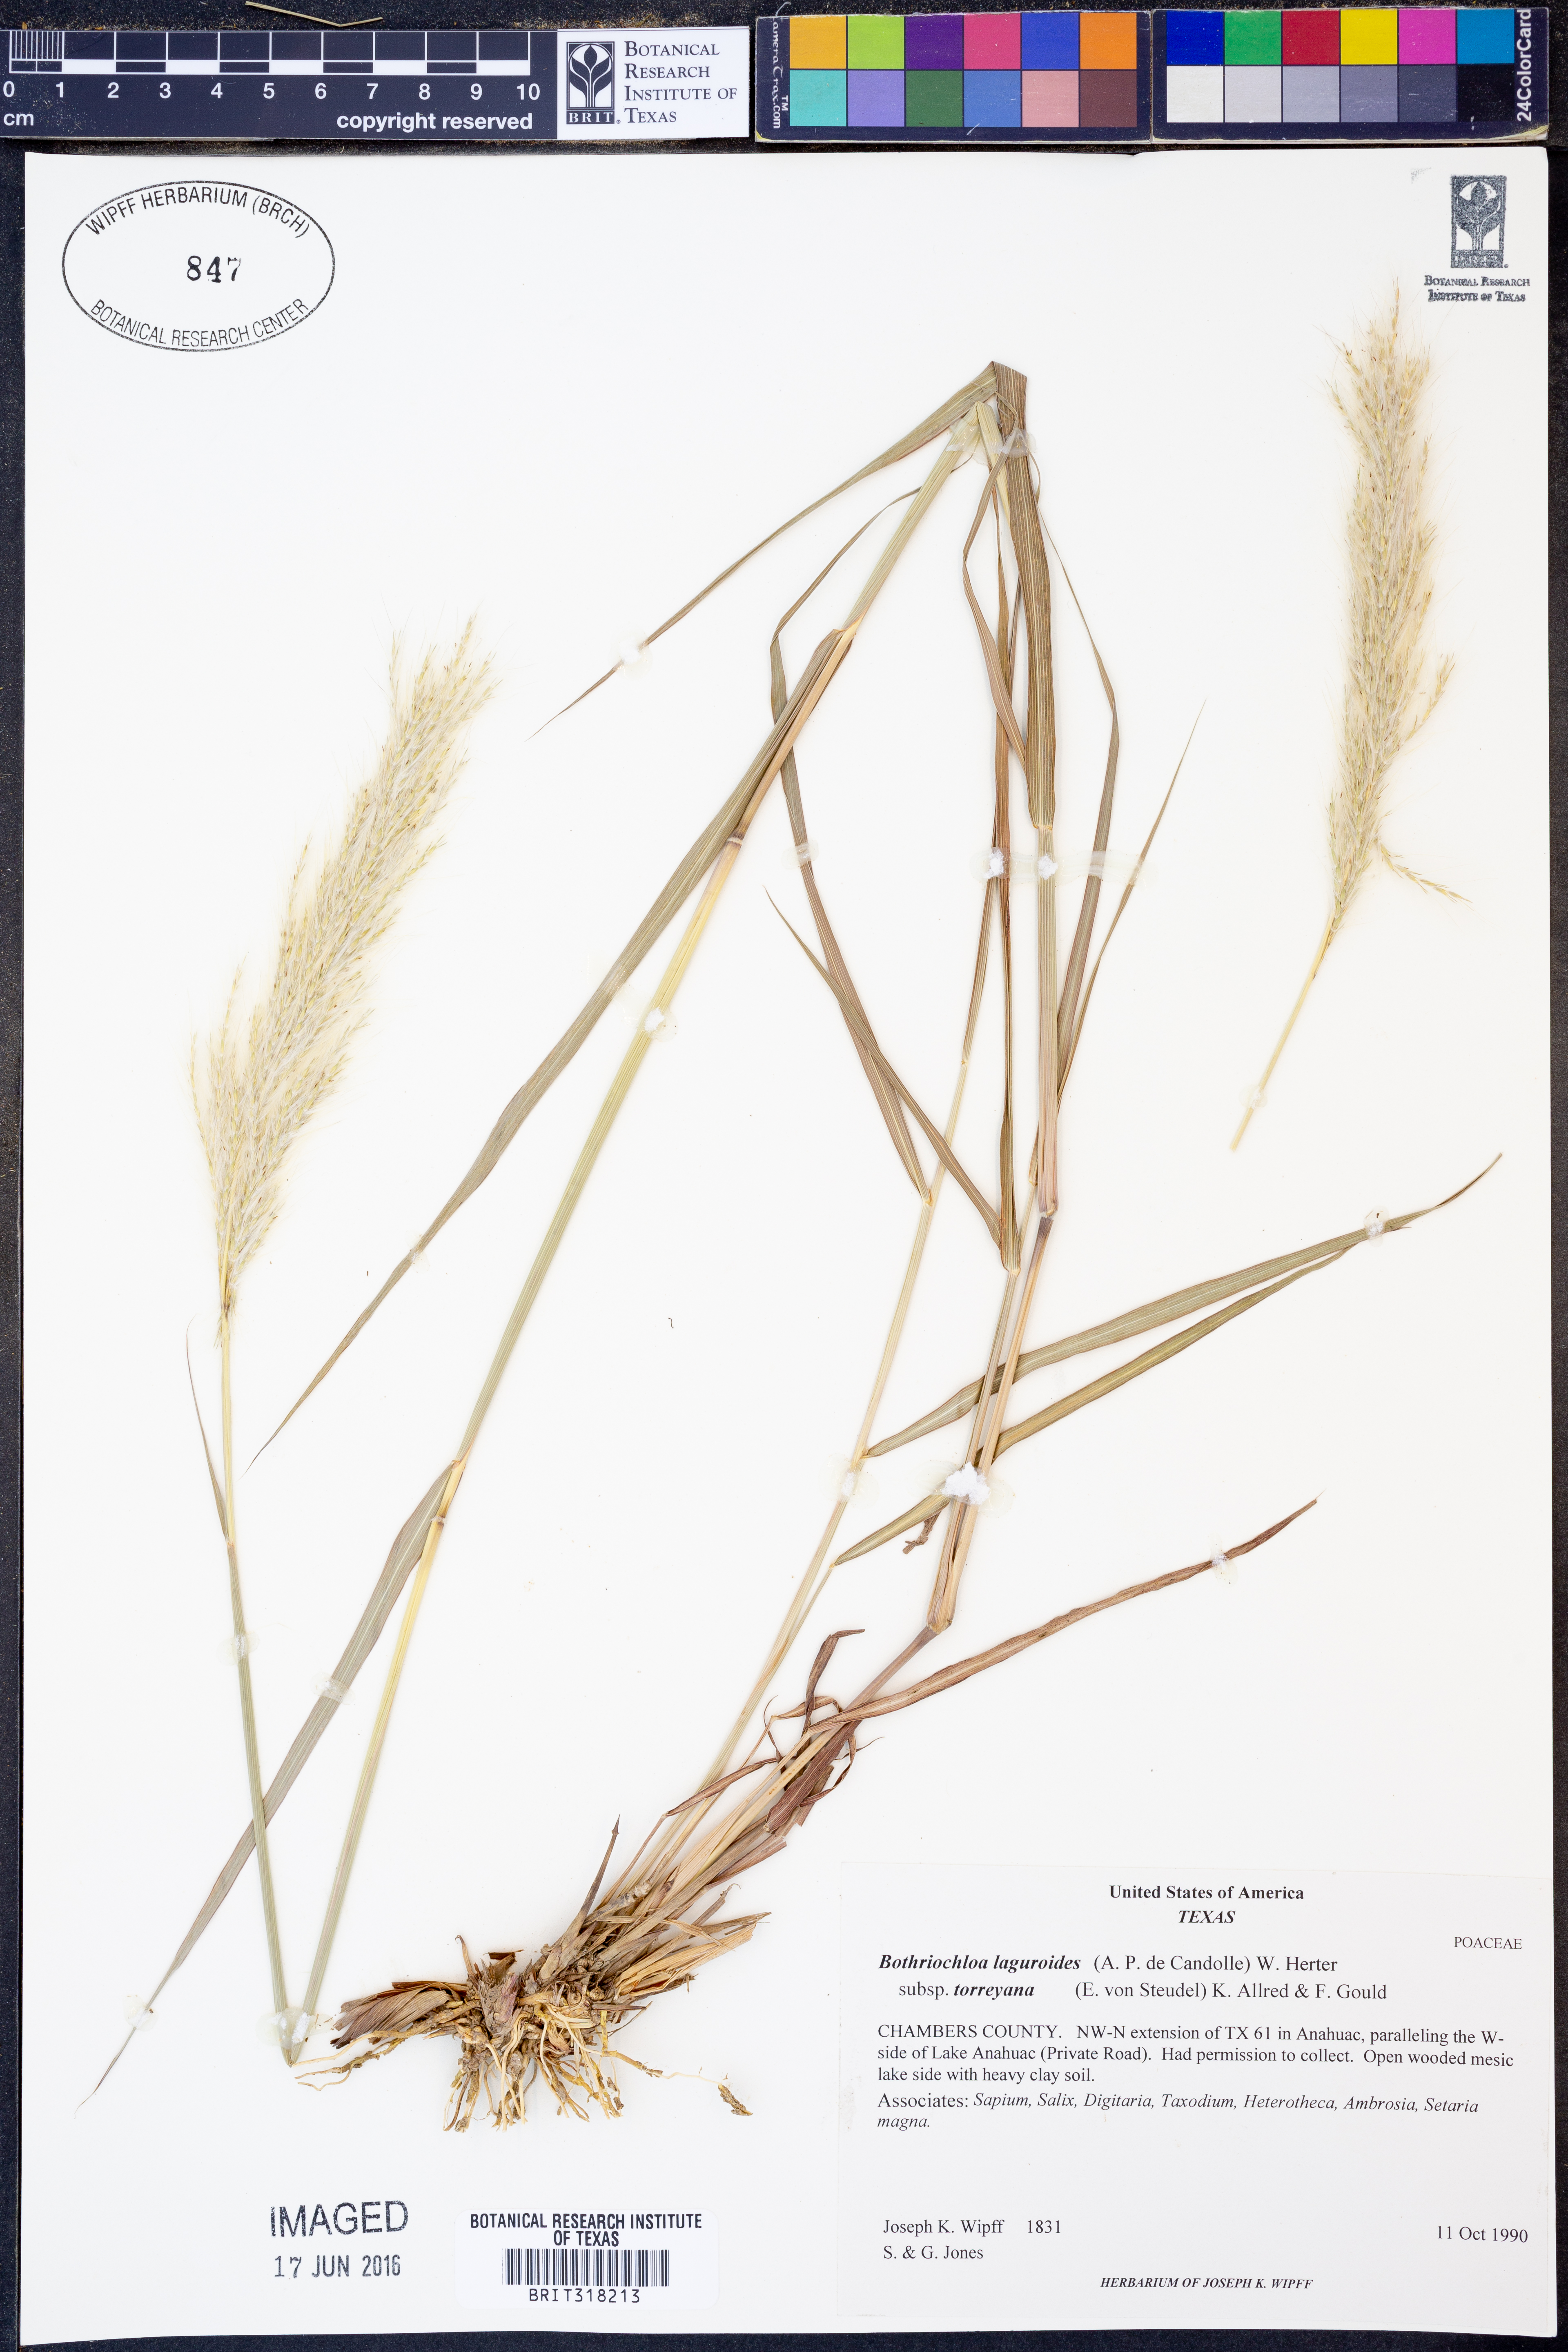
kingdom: Plantae
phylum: Tracheophyta
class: Liliopsida
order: Poales
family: Poaceae
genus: Bothriochloa
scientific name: Bothriochloa torreyana
